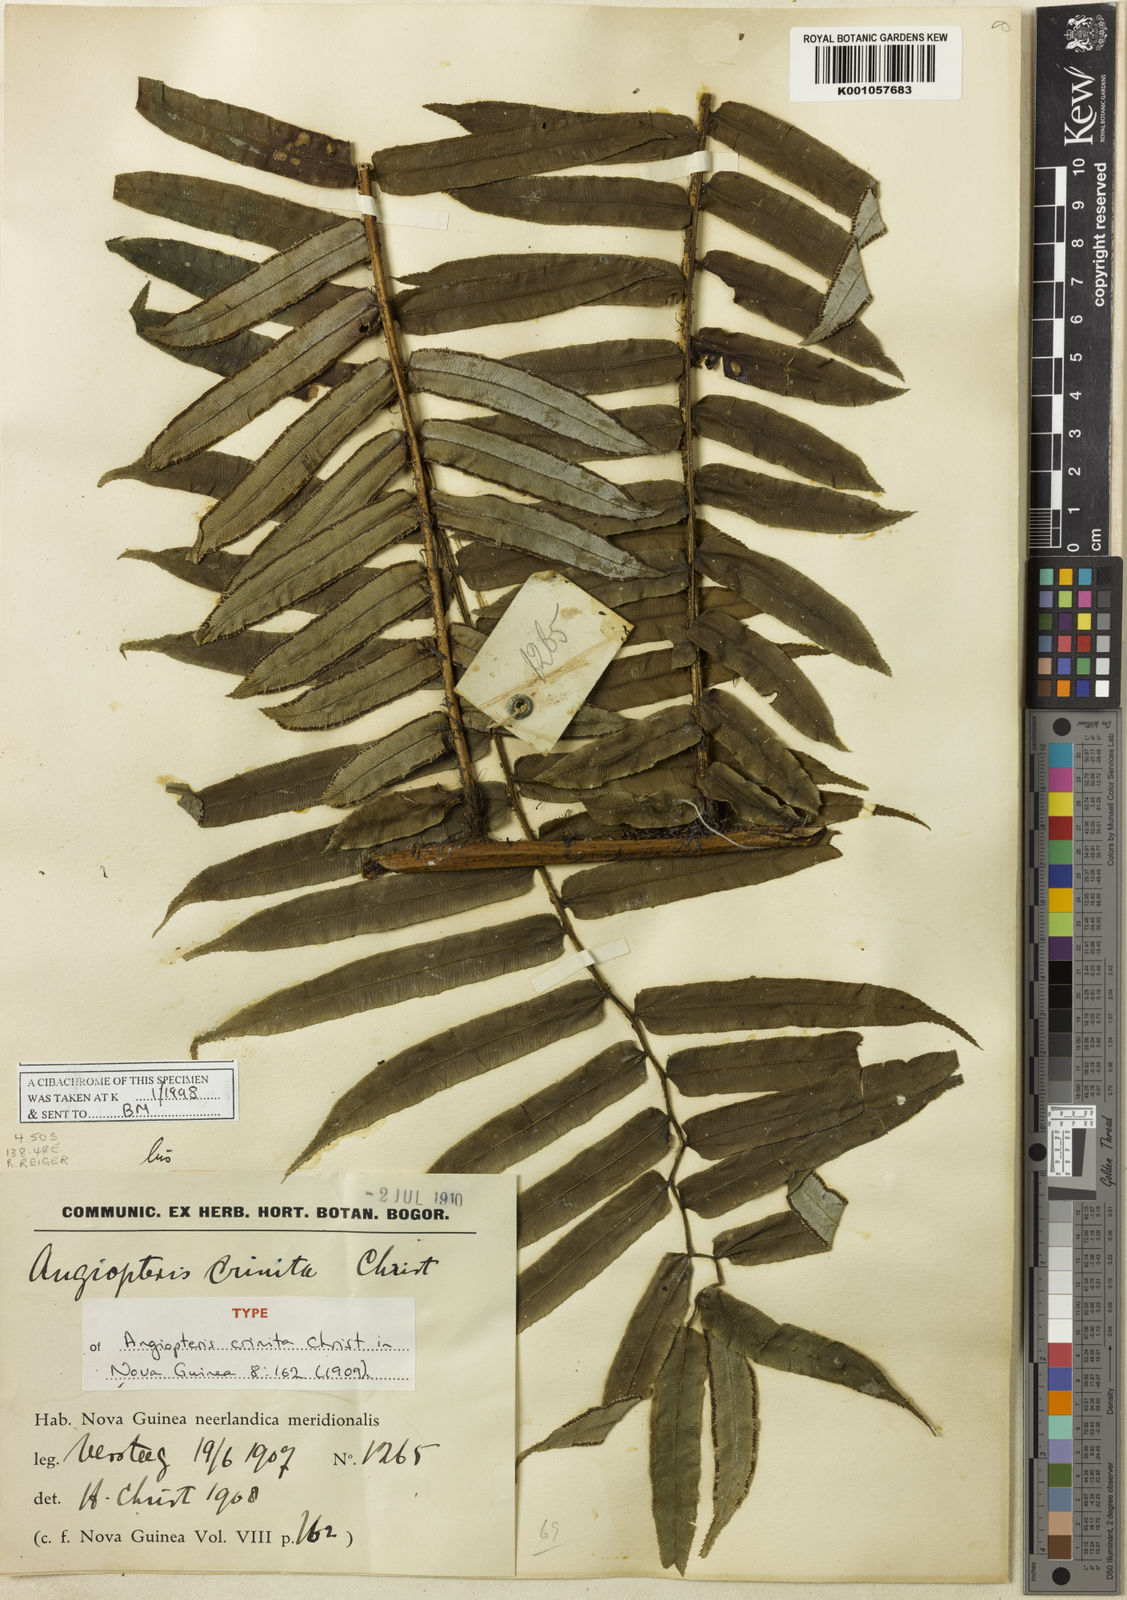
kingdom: Plantae
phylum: Tracheophyta
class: Polypodiopsida
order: Marattiales
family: Marattiaceae
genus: Angiopteris
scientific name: Angiopteris pruinosa
